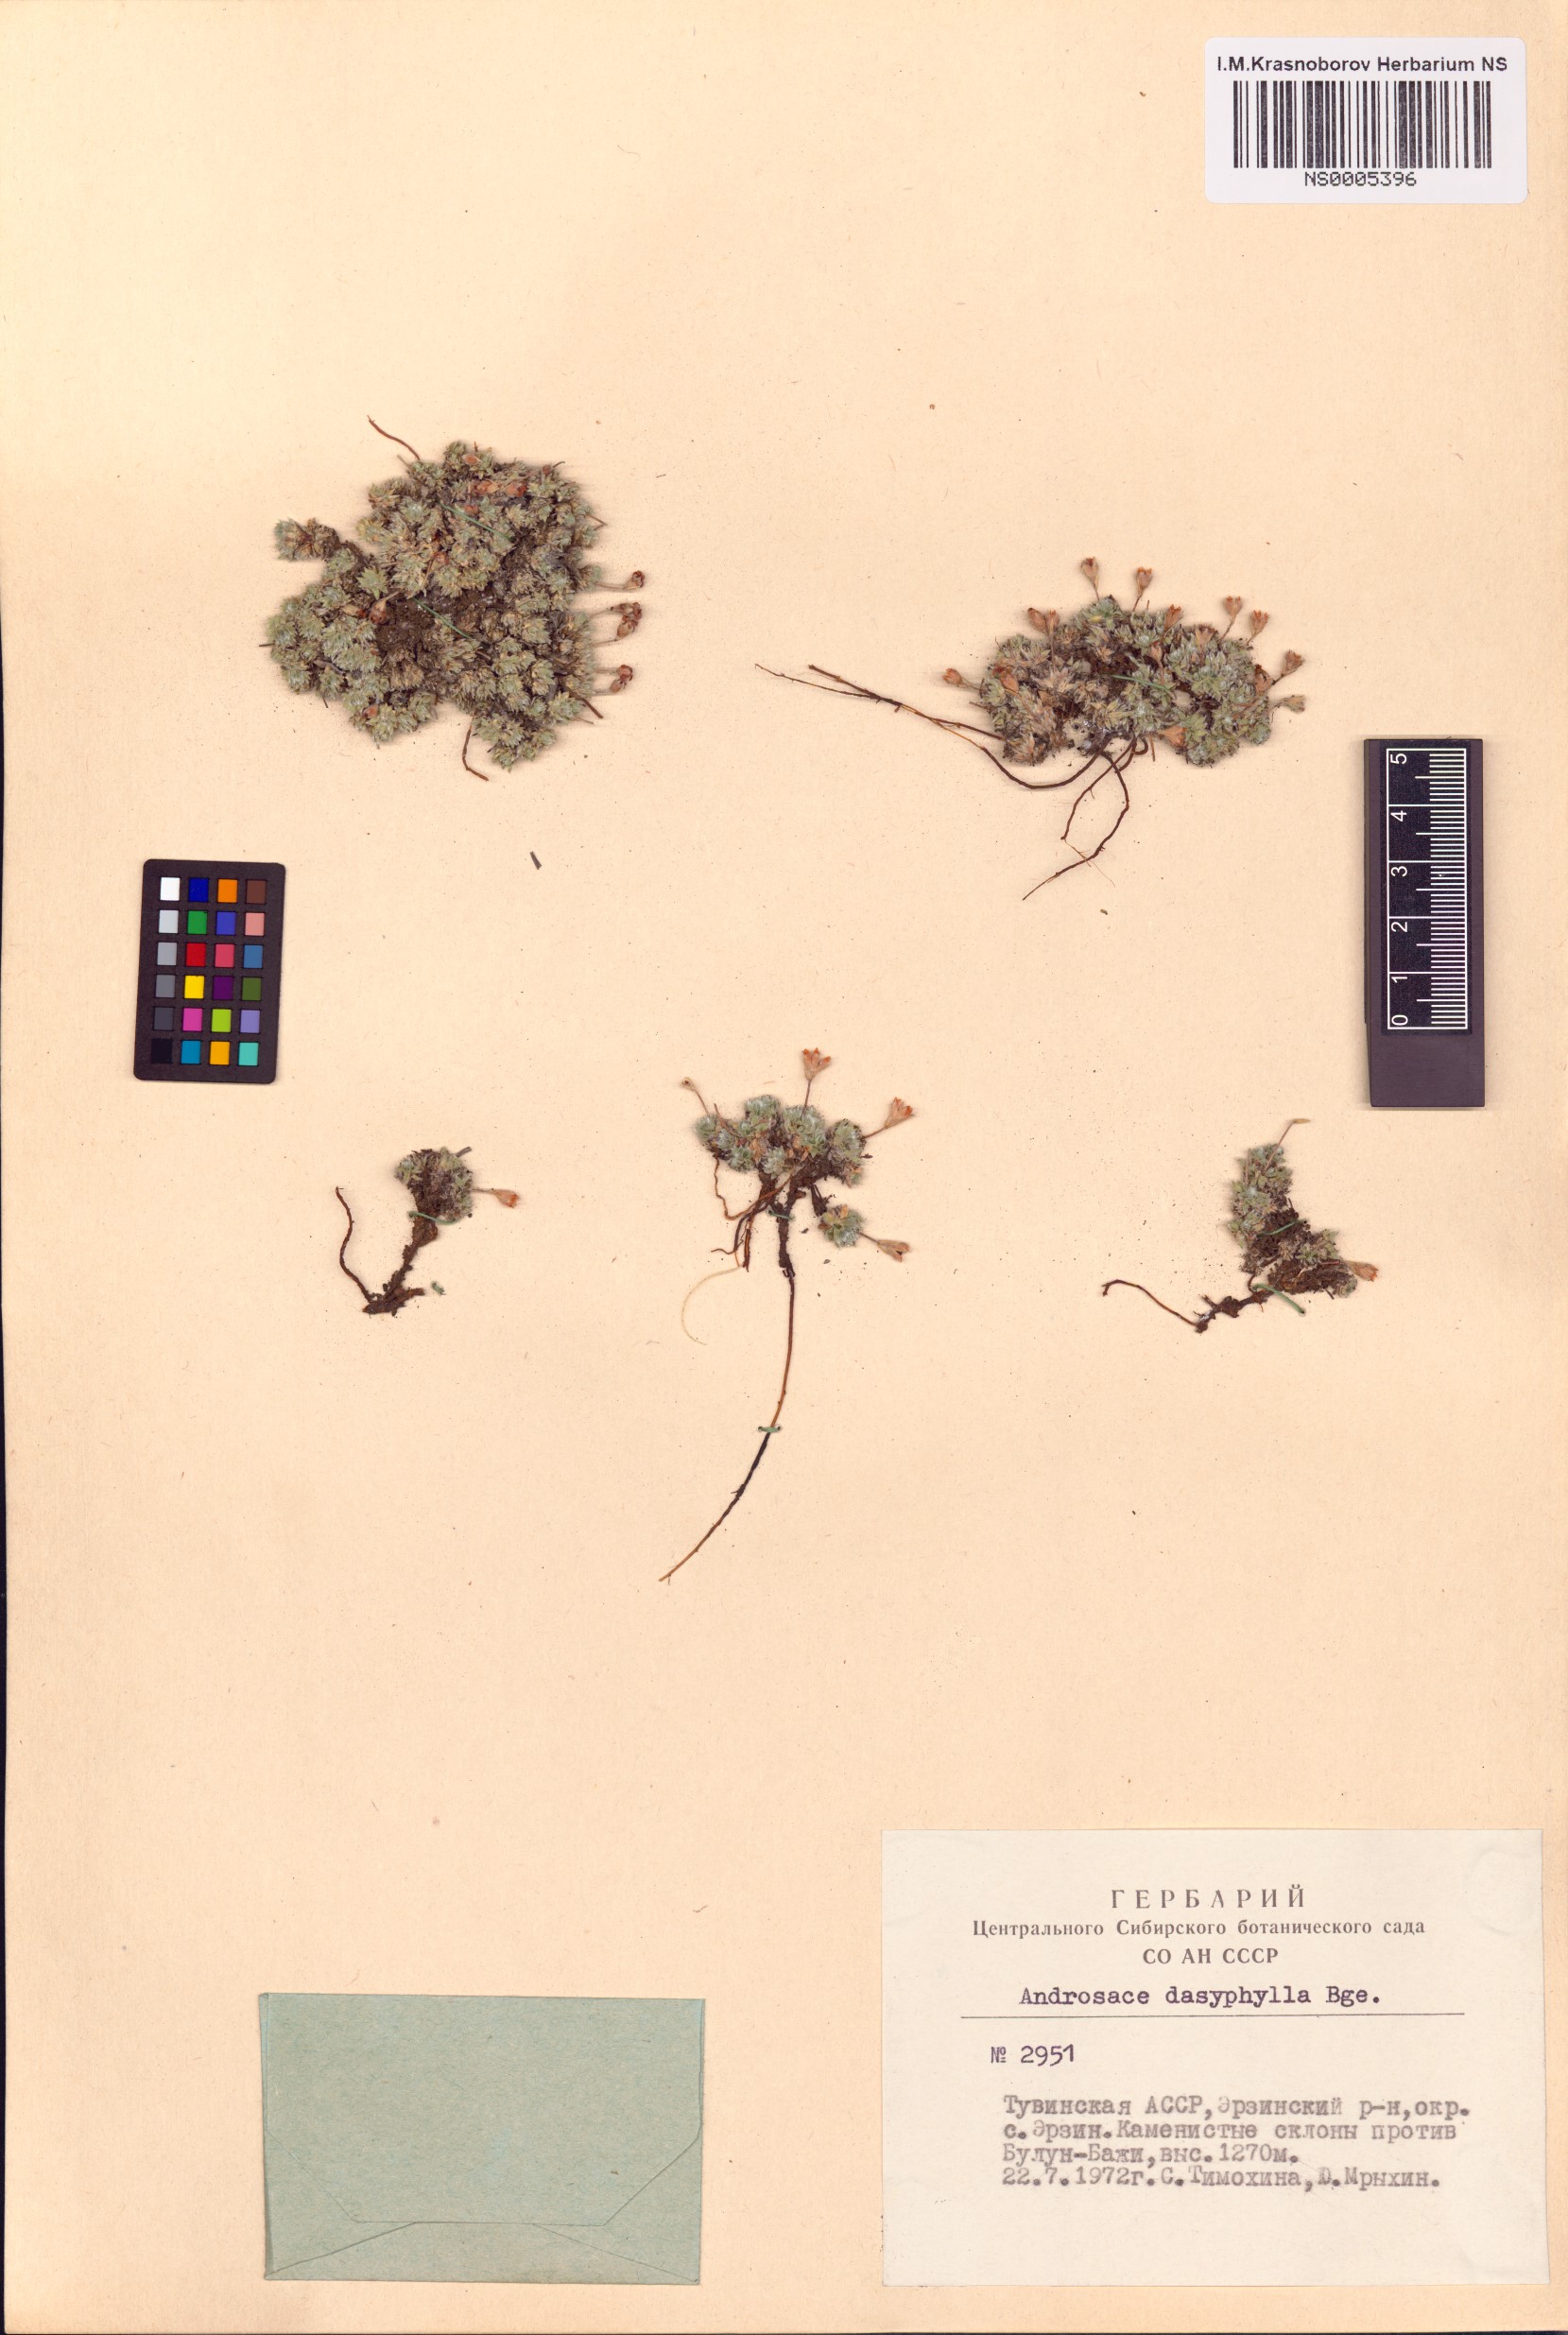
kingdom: Plantae
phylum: Tracheophyta
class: Magnoliopsida
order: Ericales
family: Primulaceae
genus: Androsace
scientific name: Androsace dasyphylla
